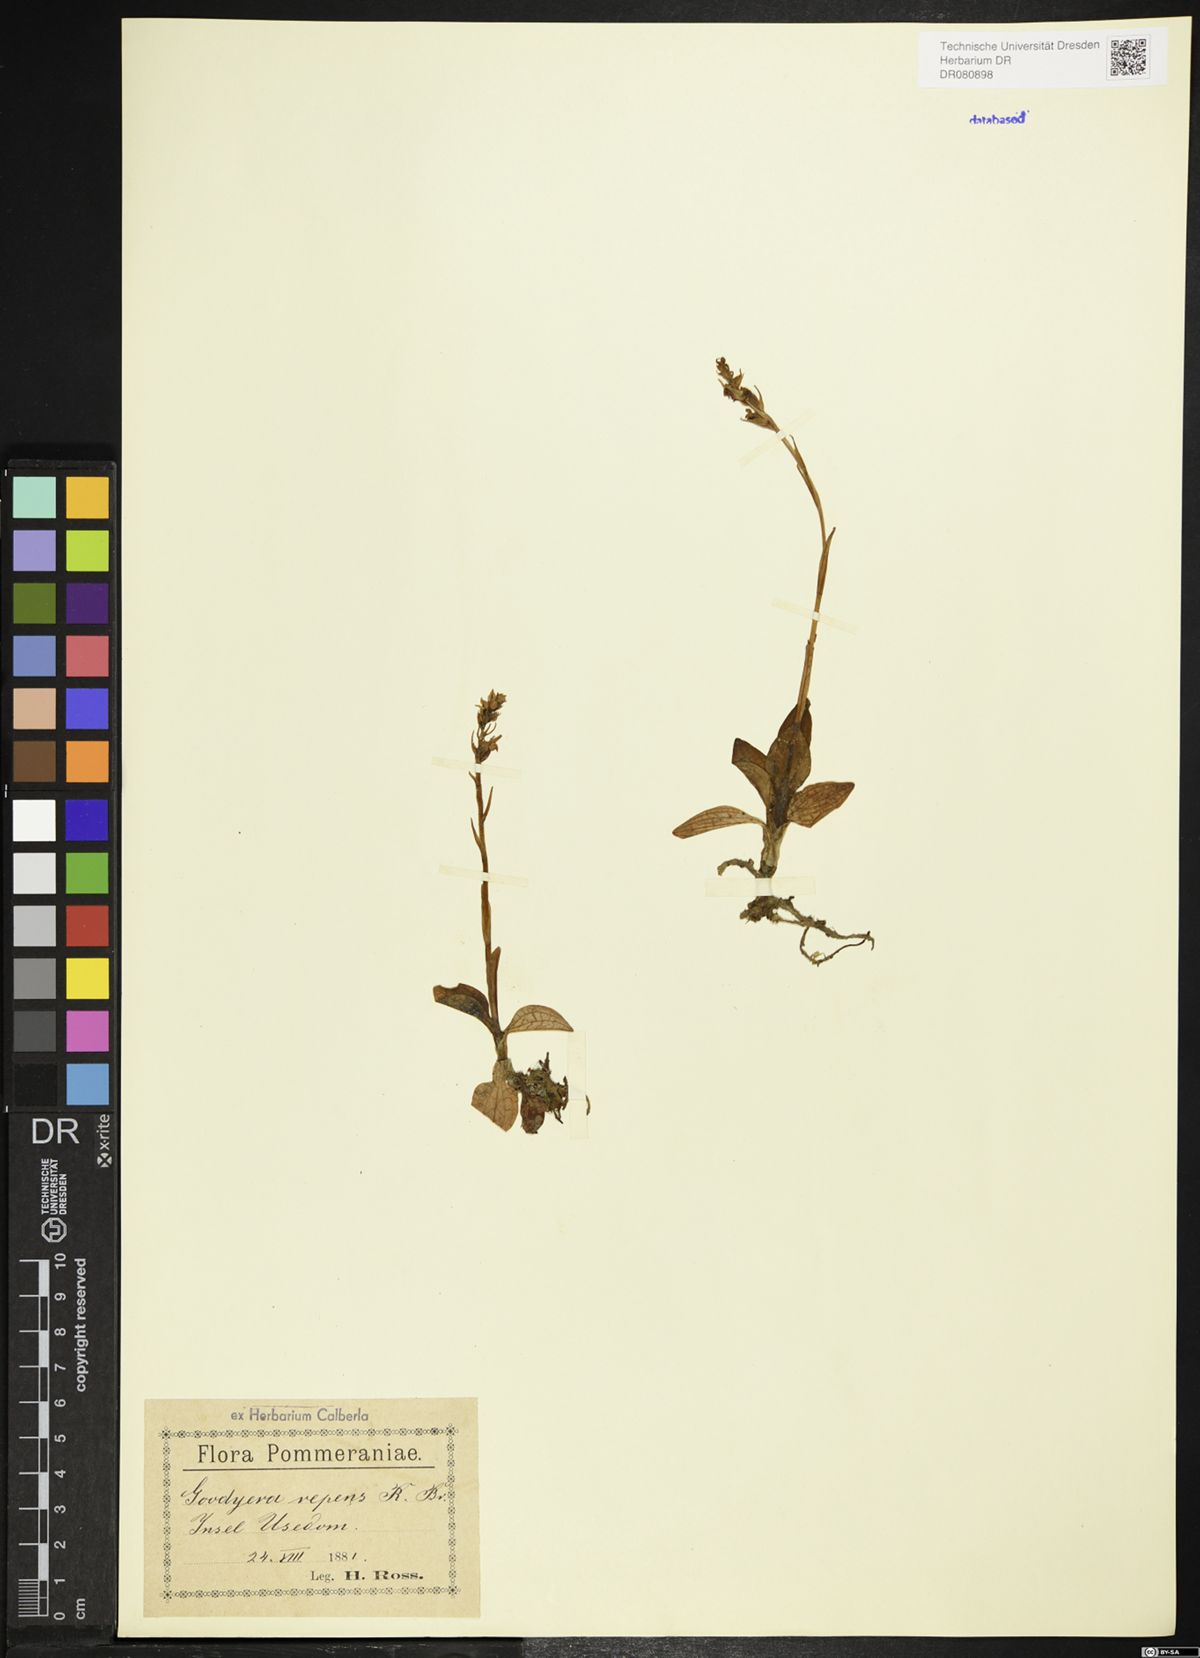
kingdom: Plantae
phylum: Tracheophyta
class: Liliopsida
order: Asparagales
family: Orchidaceae
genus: Goodyera
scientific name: Goodyera repens
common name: Creeping lady's-tresses
